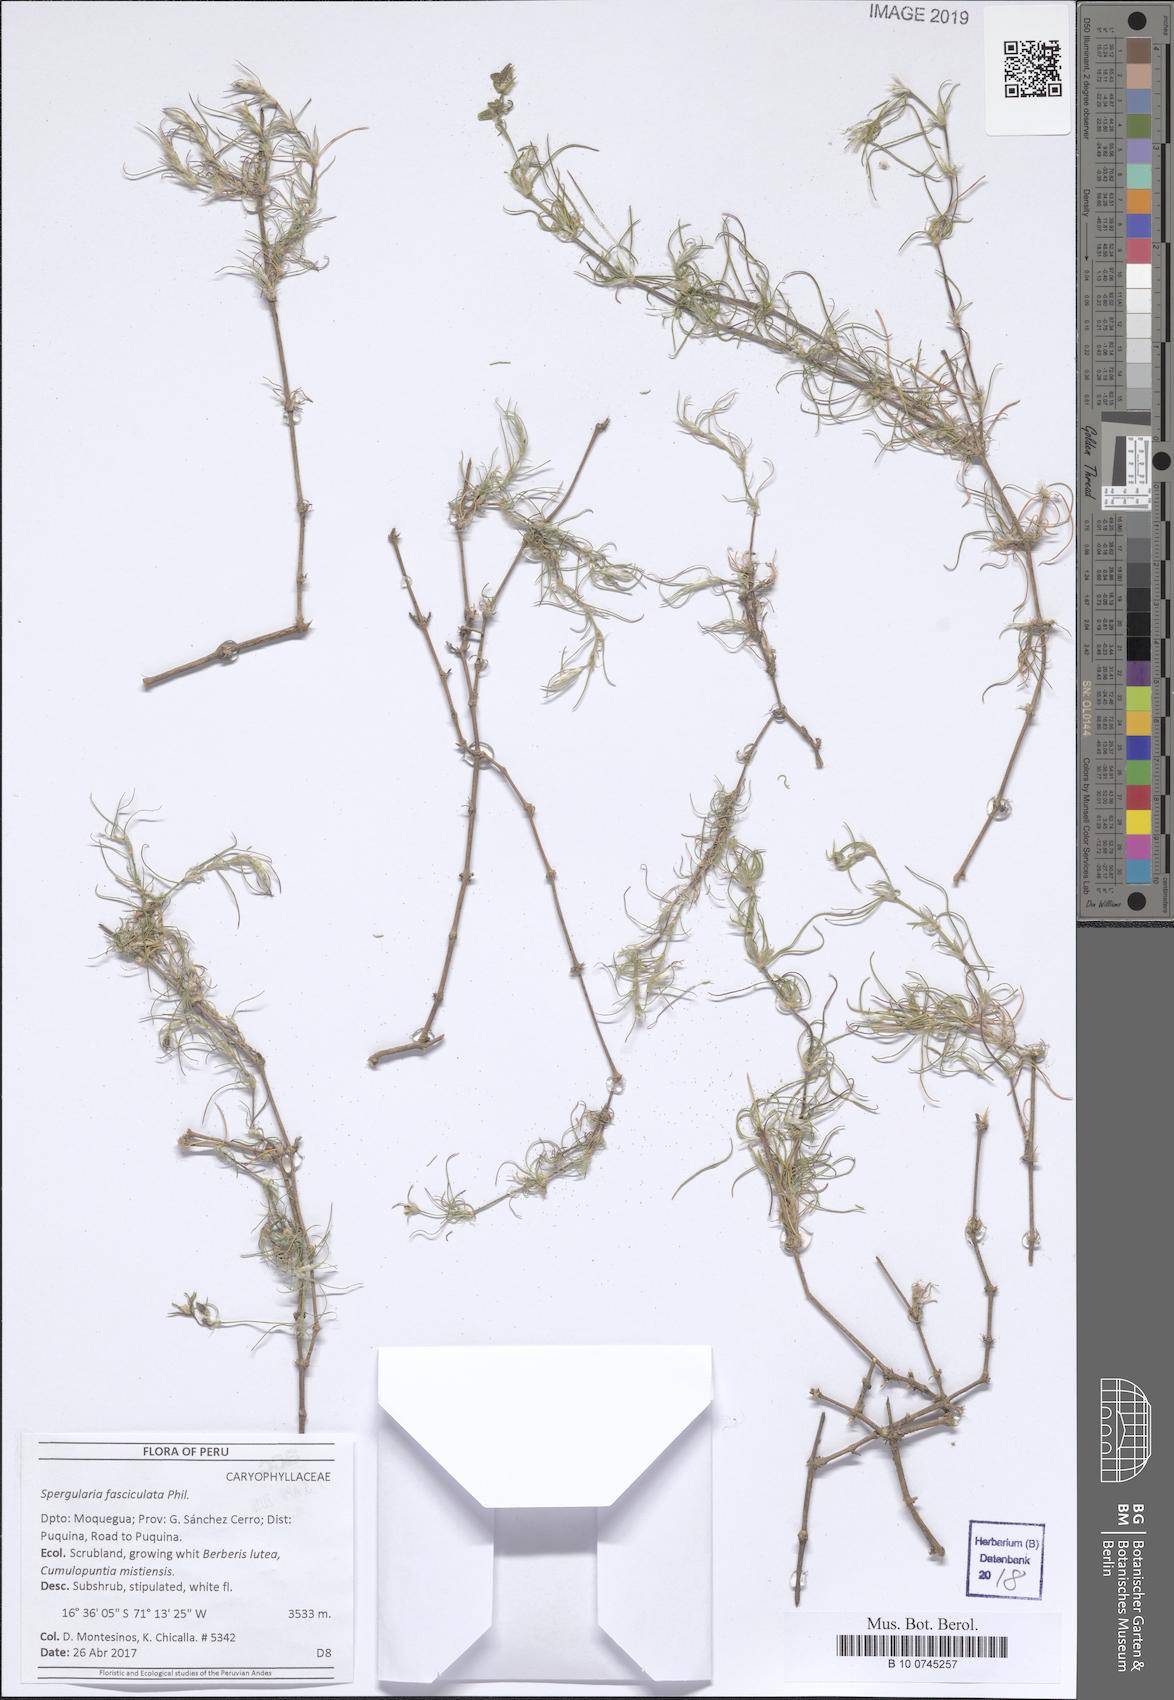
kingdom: Plantae
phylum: Tracheophyta
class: Magnoliopsida
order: Caryophyllales
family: Caryophyllaceae
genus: Spergularia
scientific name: Spergularia fasciculata
